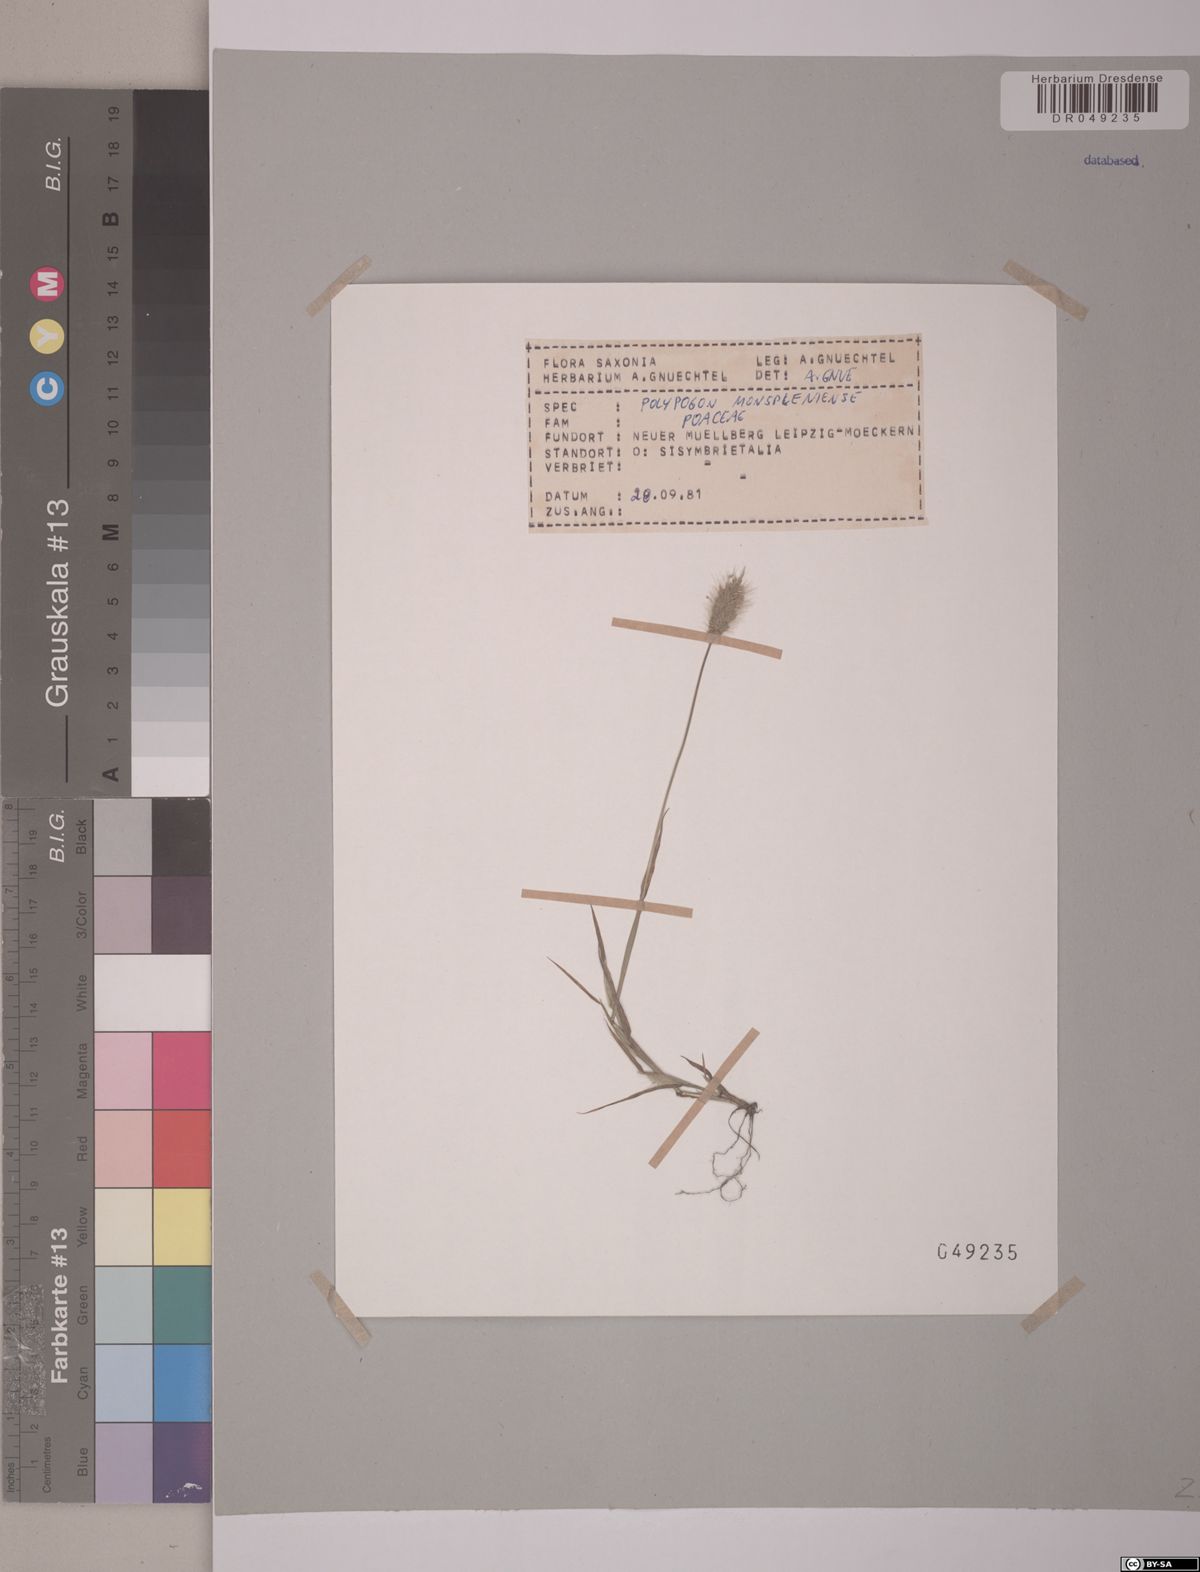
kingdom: Plantae
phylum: Tracheophyta
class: Liliopsida
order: Poales
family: Poaceae
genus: Polypogon
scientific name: Polypogon monspeliensis
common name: Annual rabbitsfoot grass
